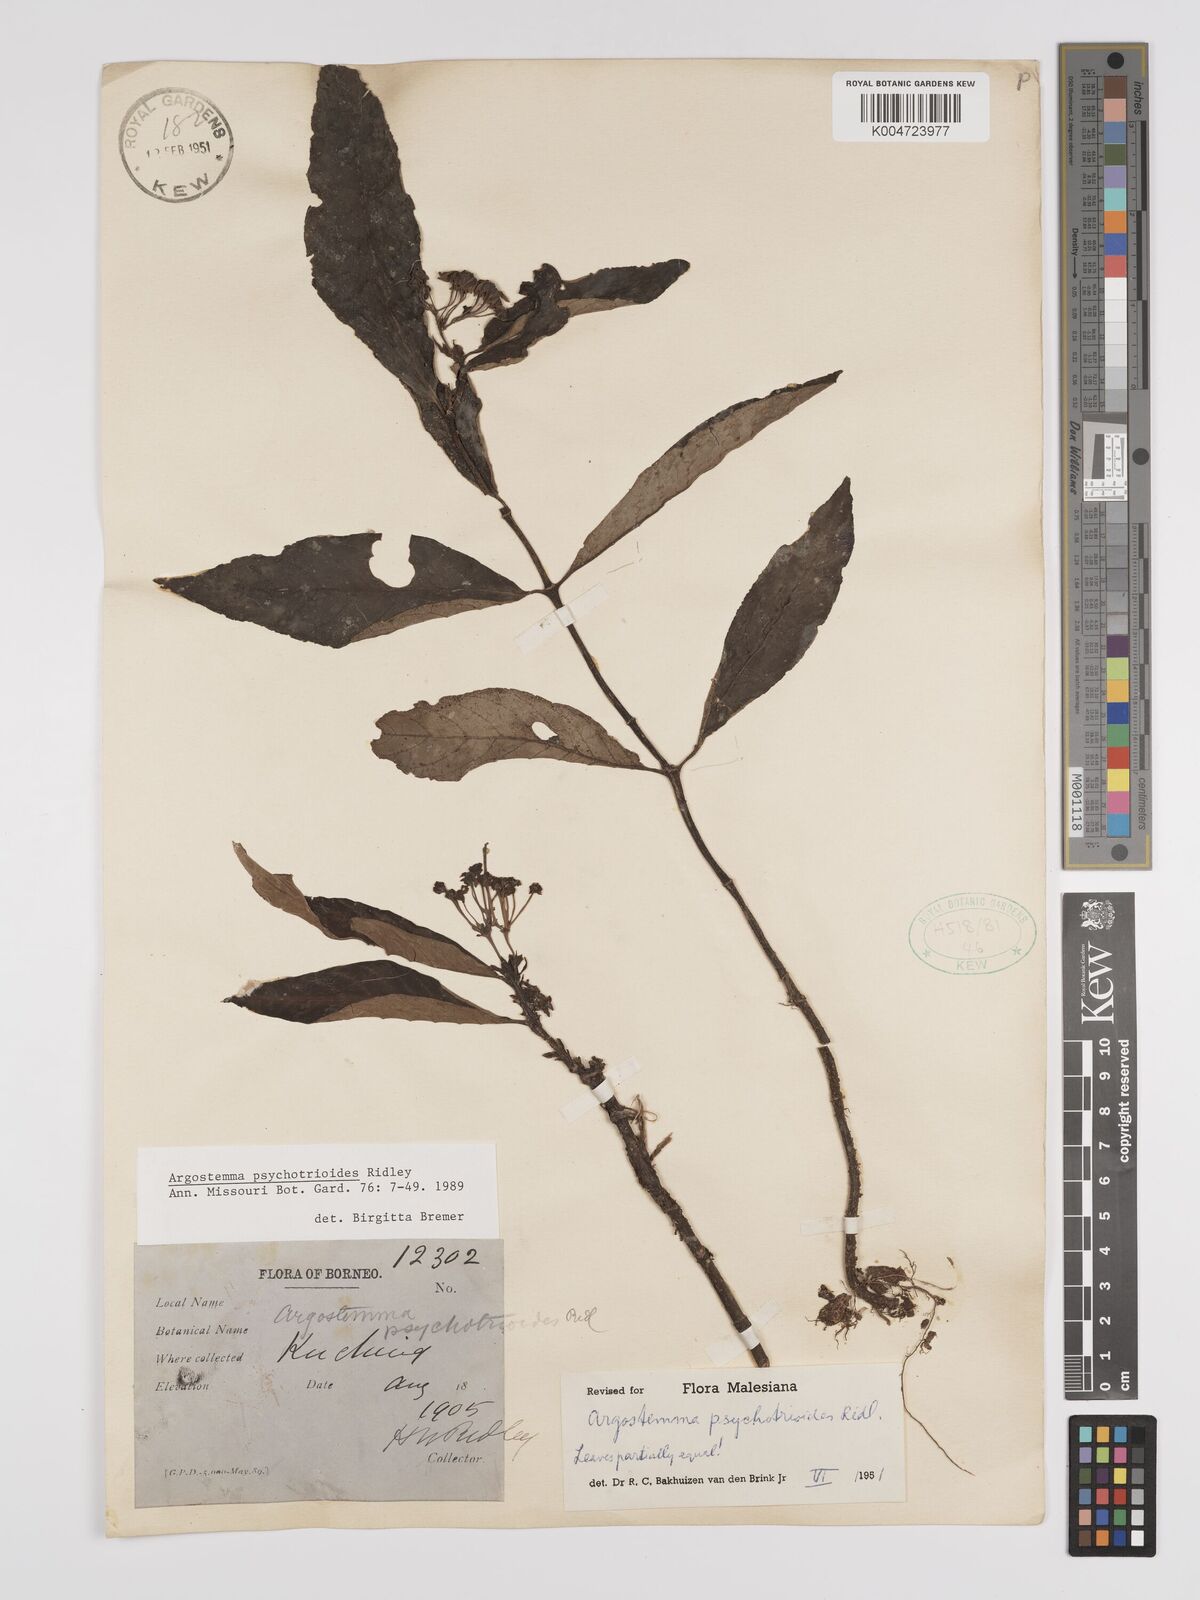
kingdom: Plantae
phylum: Tracheophyta
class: Magnoliopsida
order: Gentianales
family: Rubiaceae
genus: Argostemma
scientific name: Argostemma psychotrioides
